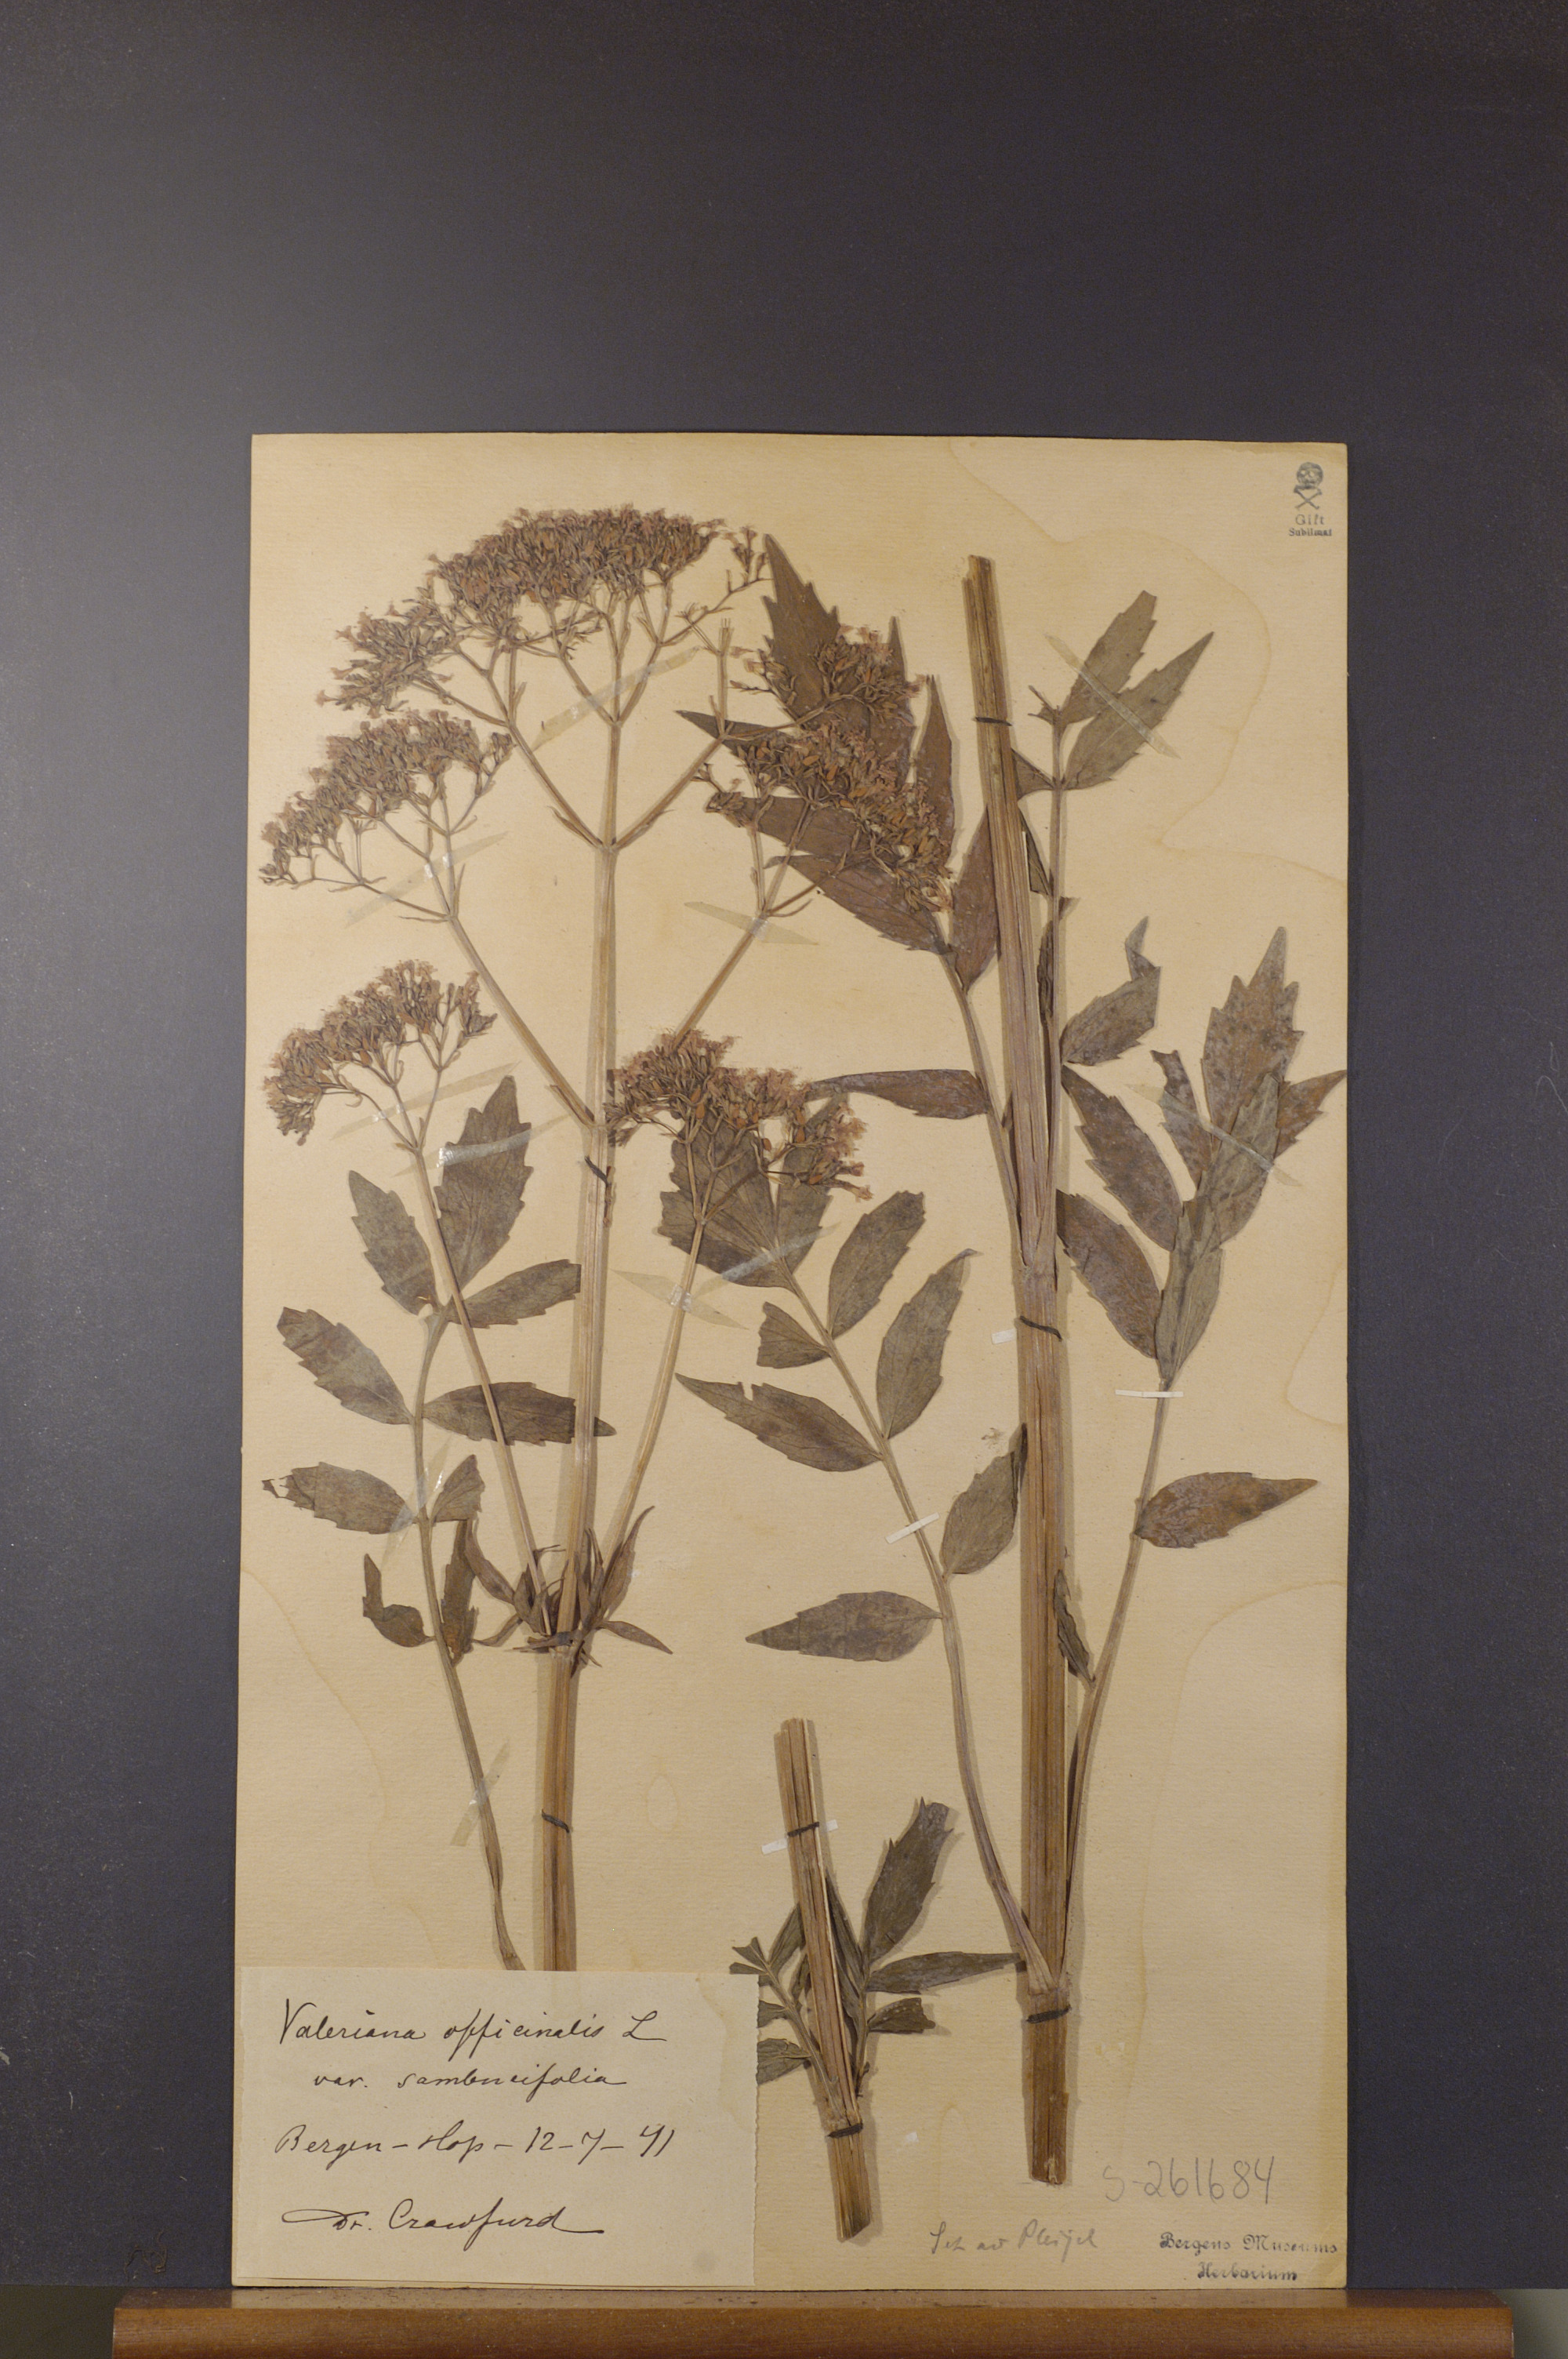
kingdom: Plantae
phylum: Tracheophyta
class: Magnoliopsida
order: Dipsacales
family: Caprifoliaceae
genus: Valeriana
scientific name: Valeriana excelsa
